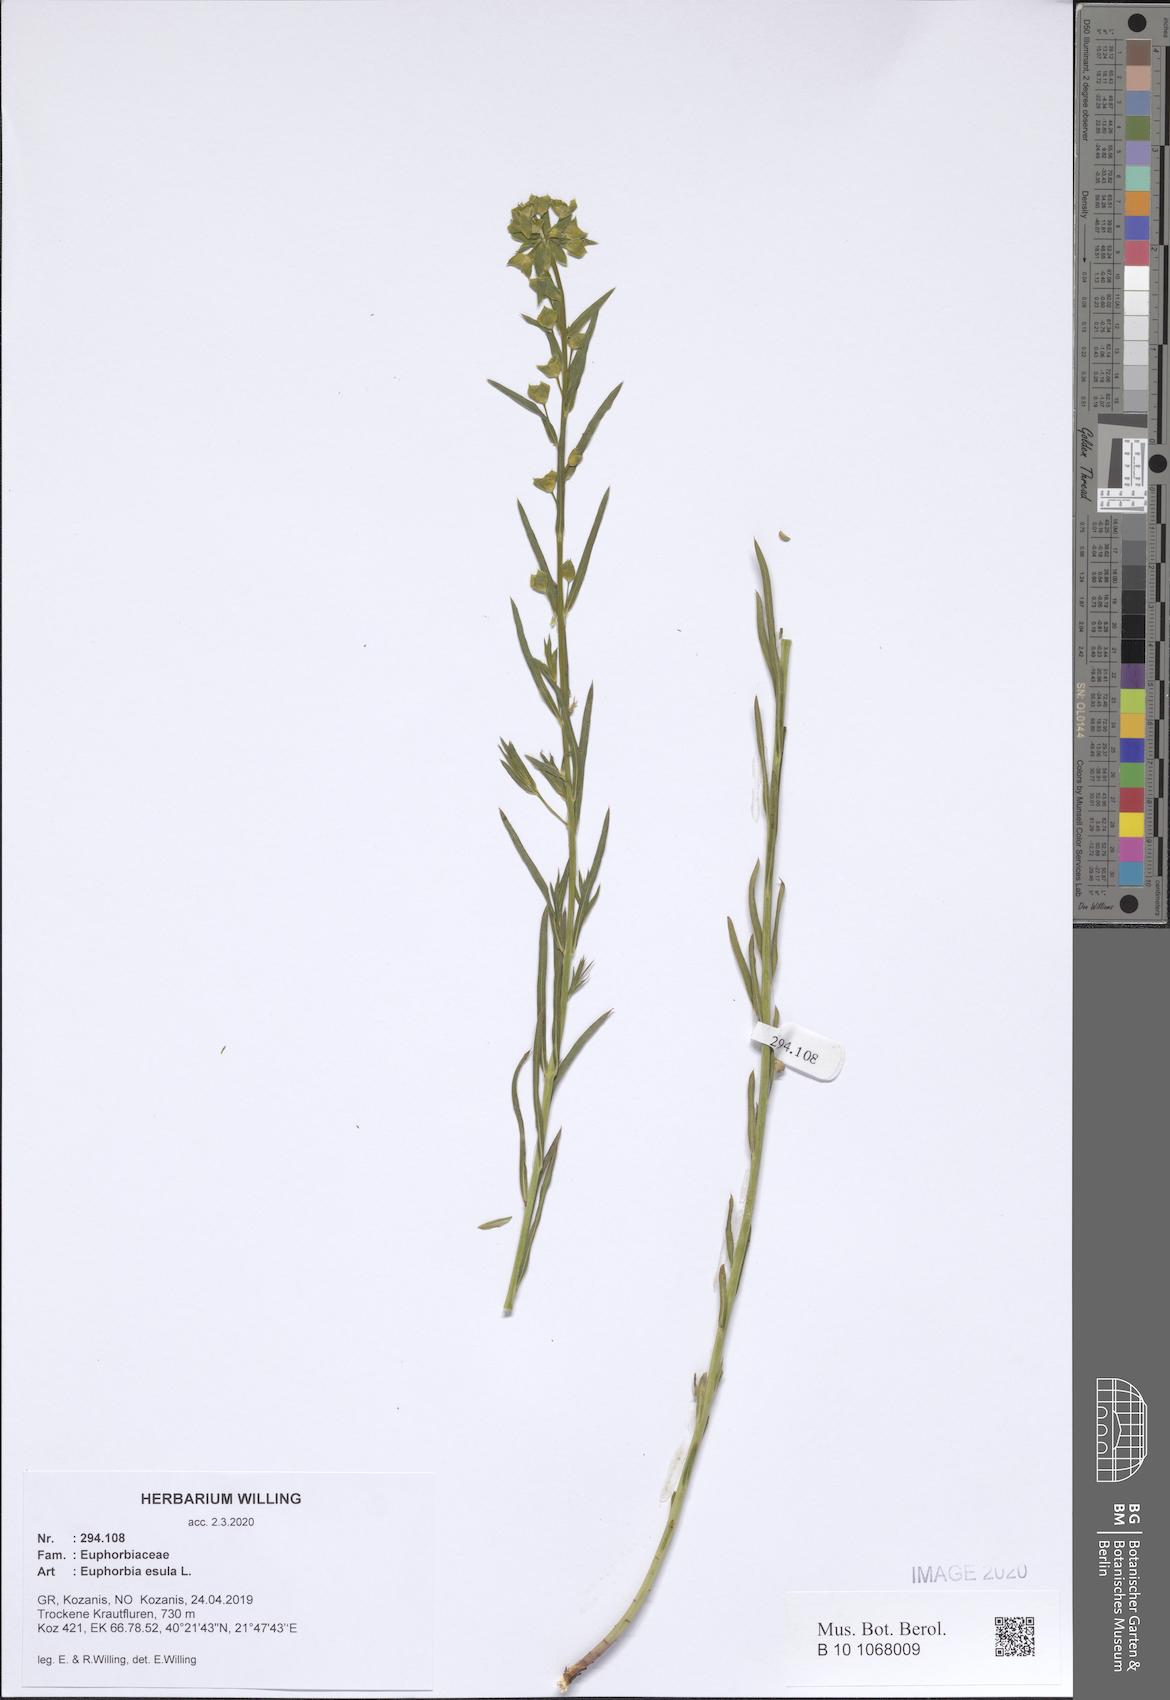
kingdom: Plantae
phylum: Tracheophyta
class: Magnoliopsida
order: Malpighiales
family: Euphorbiaceae
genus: Euphorbia
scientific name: Euphorbia esula
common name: Leafy spurge
